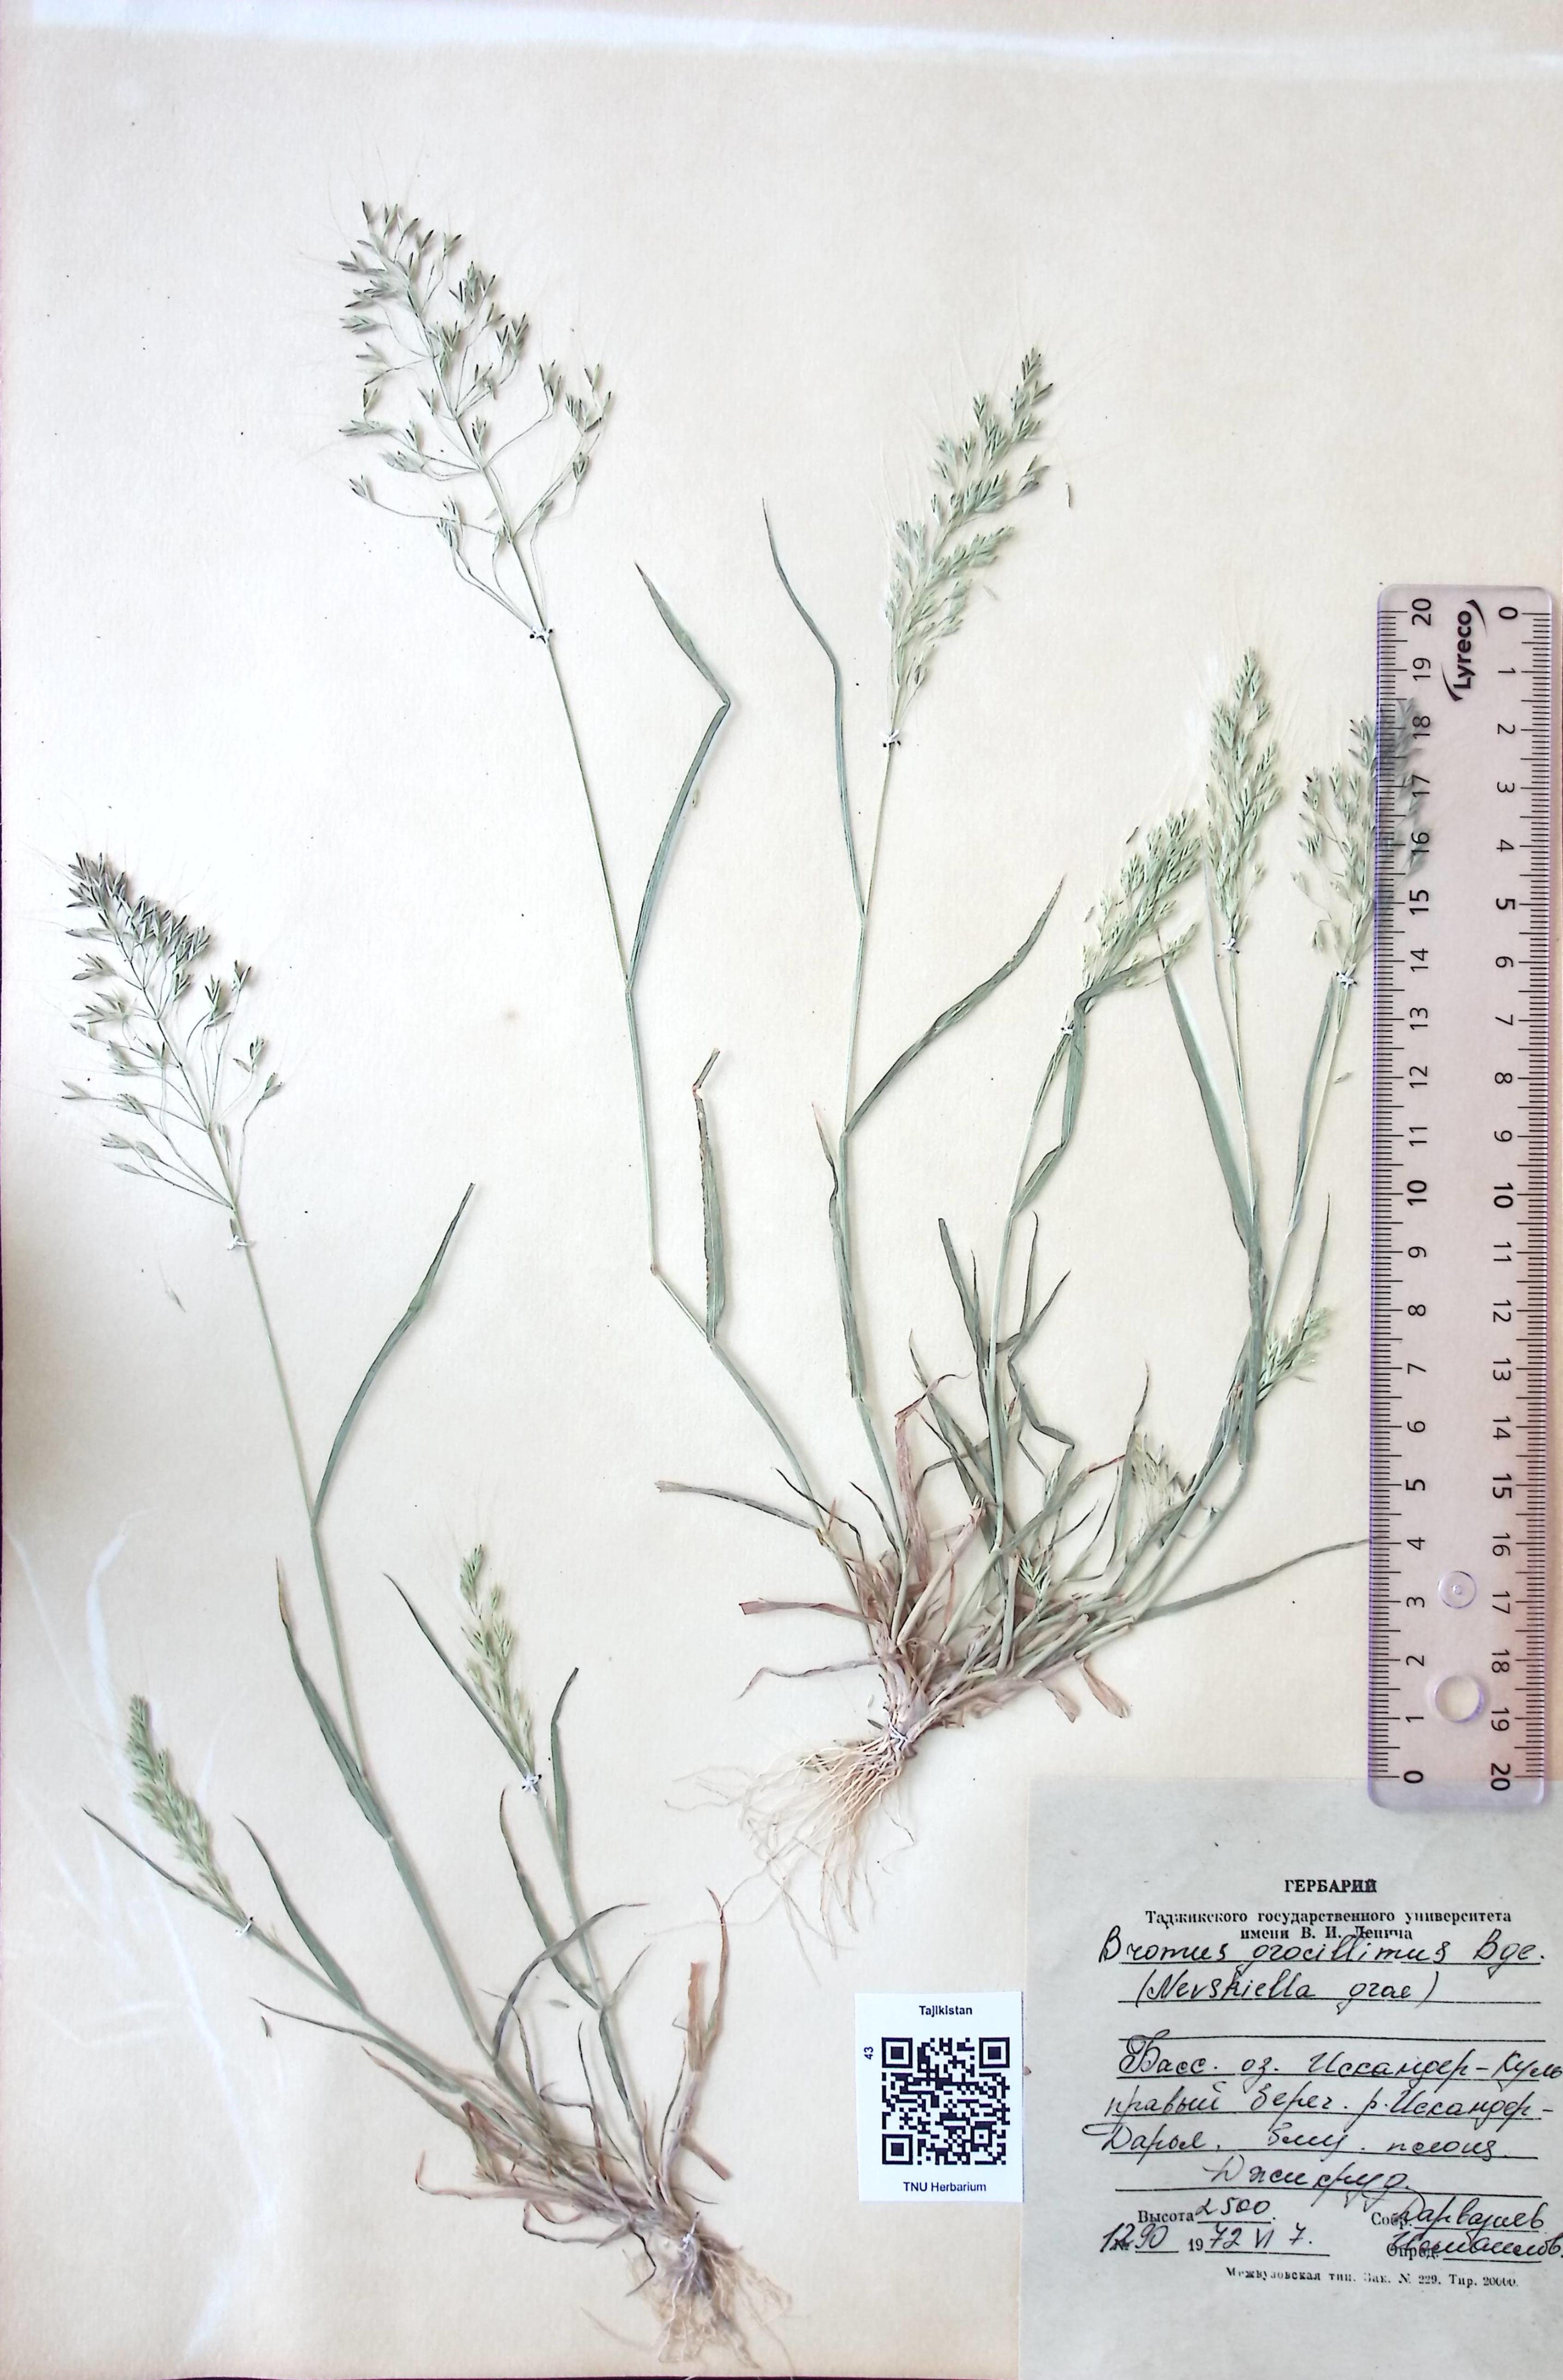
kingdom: Plantae
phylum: Tracheophyta
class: Liliopsida
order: Poales
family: Poaceae
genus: Bromus
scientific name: Bromus gracillimus
